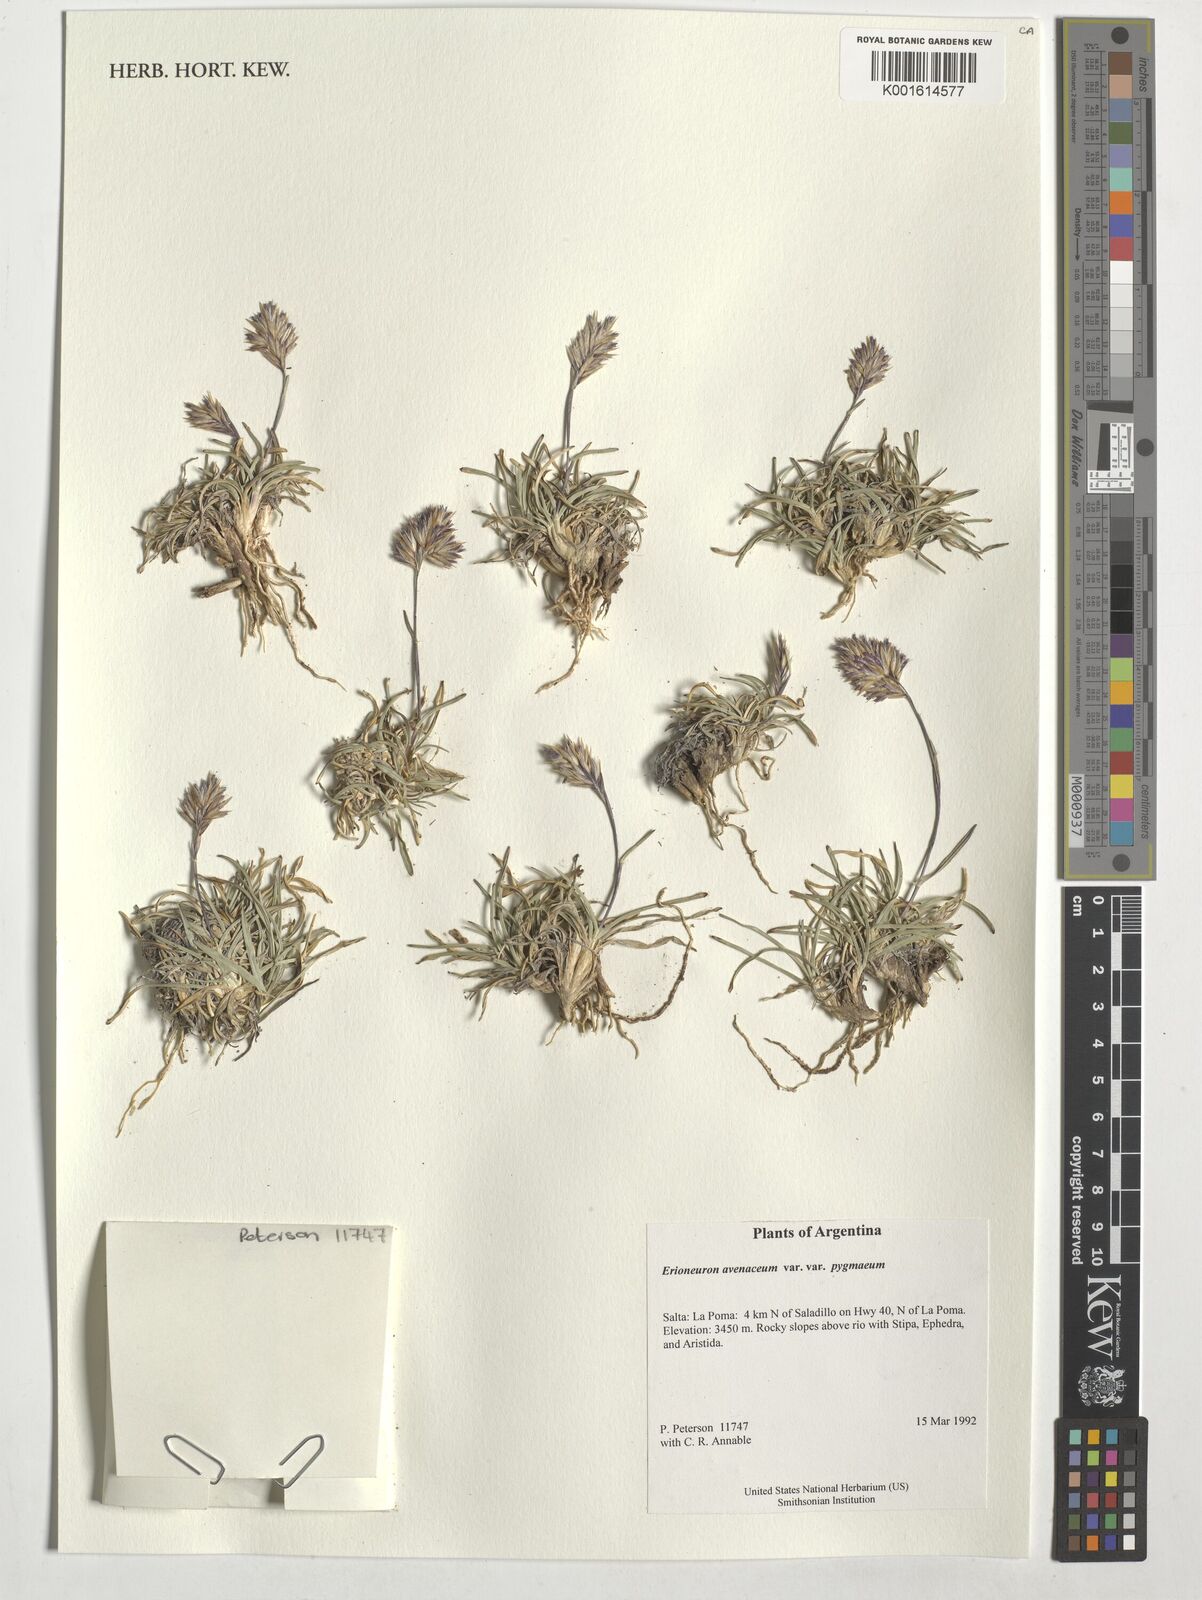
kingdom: Plantae
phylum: Tracheophyta
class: Liliopsida
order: Poales
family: Poaceae
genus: Erioneuron
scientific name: Erioneuron pilosum
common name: Hairy woolly grass
